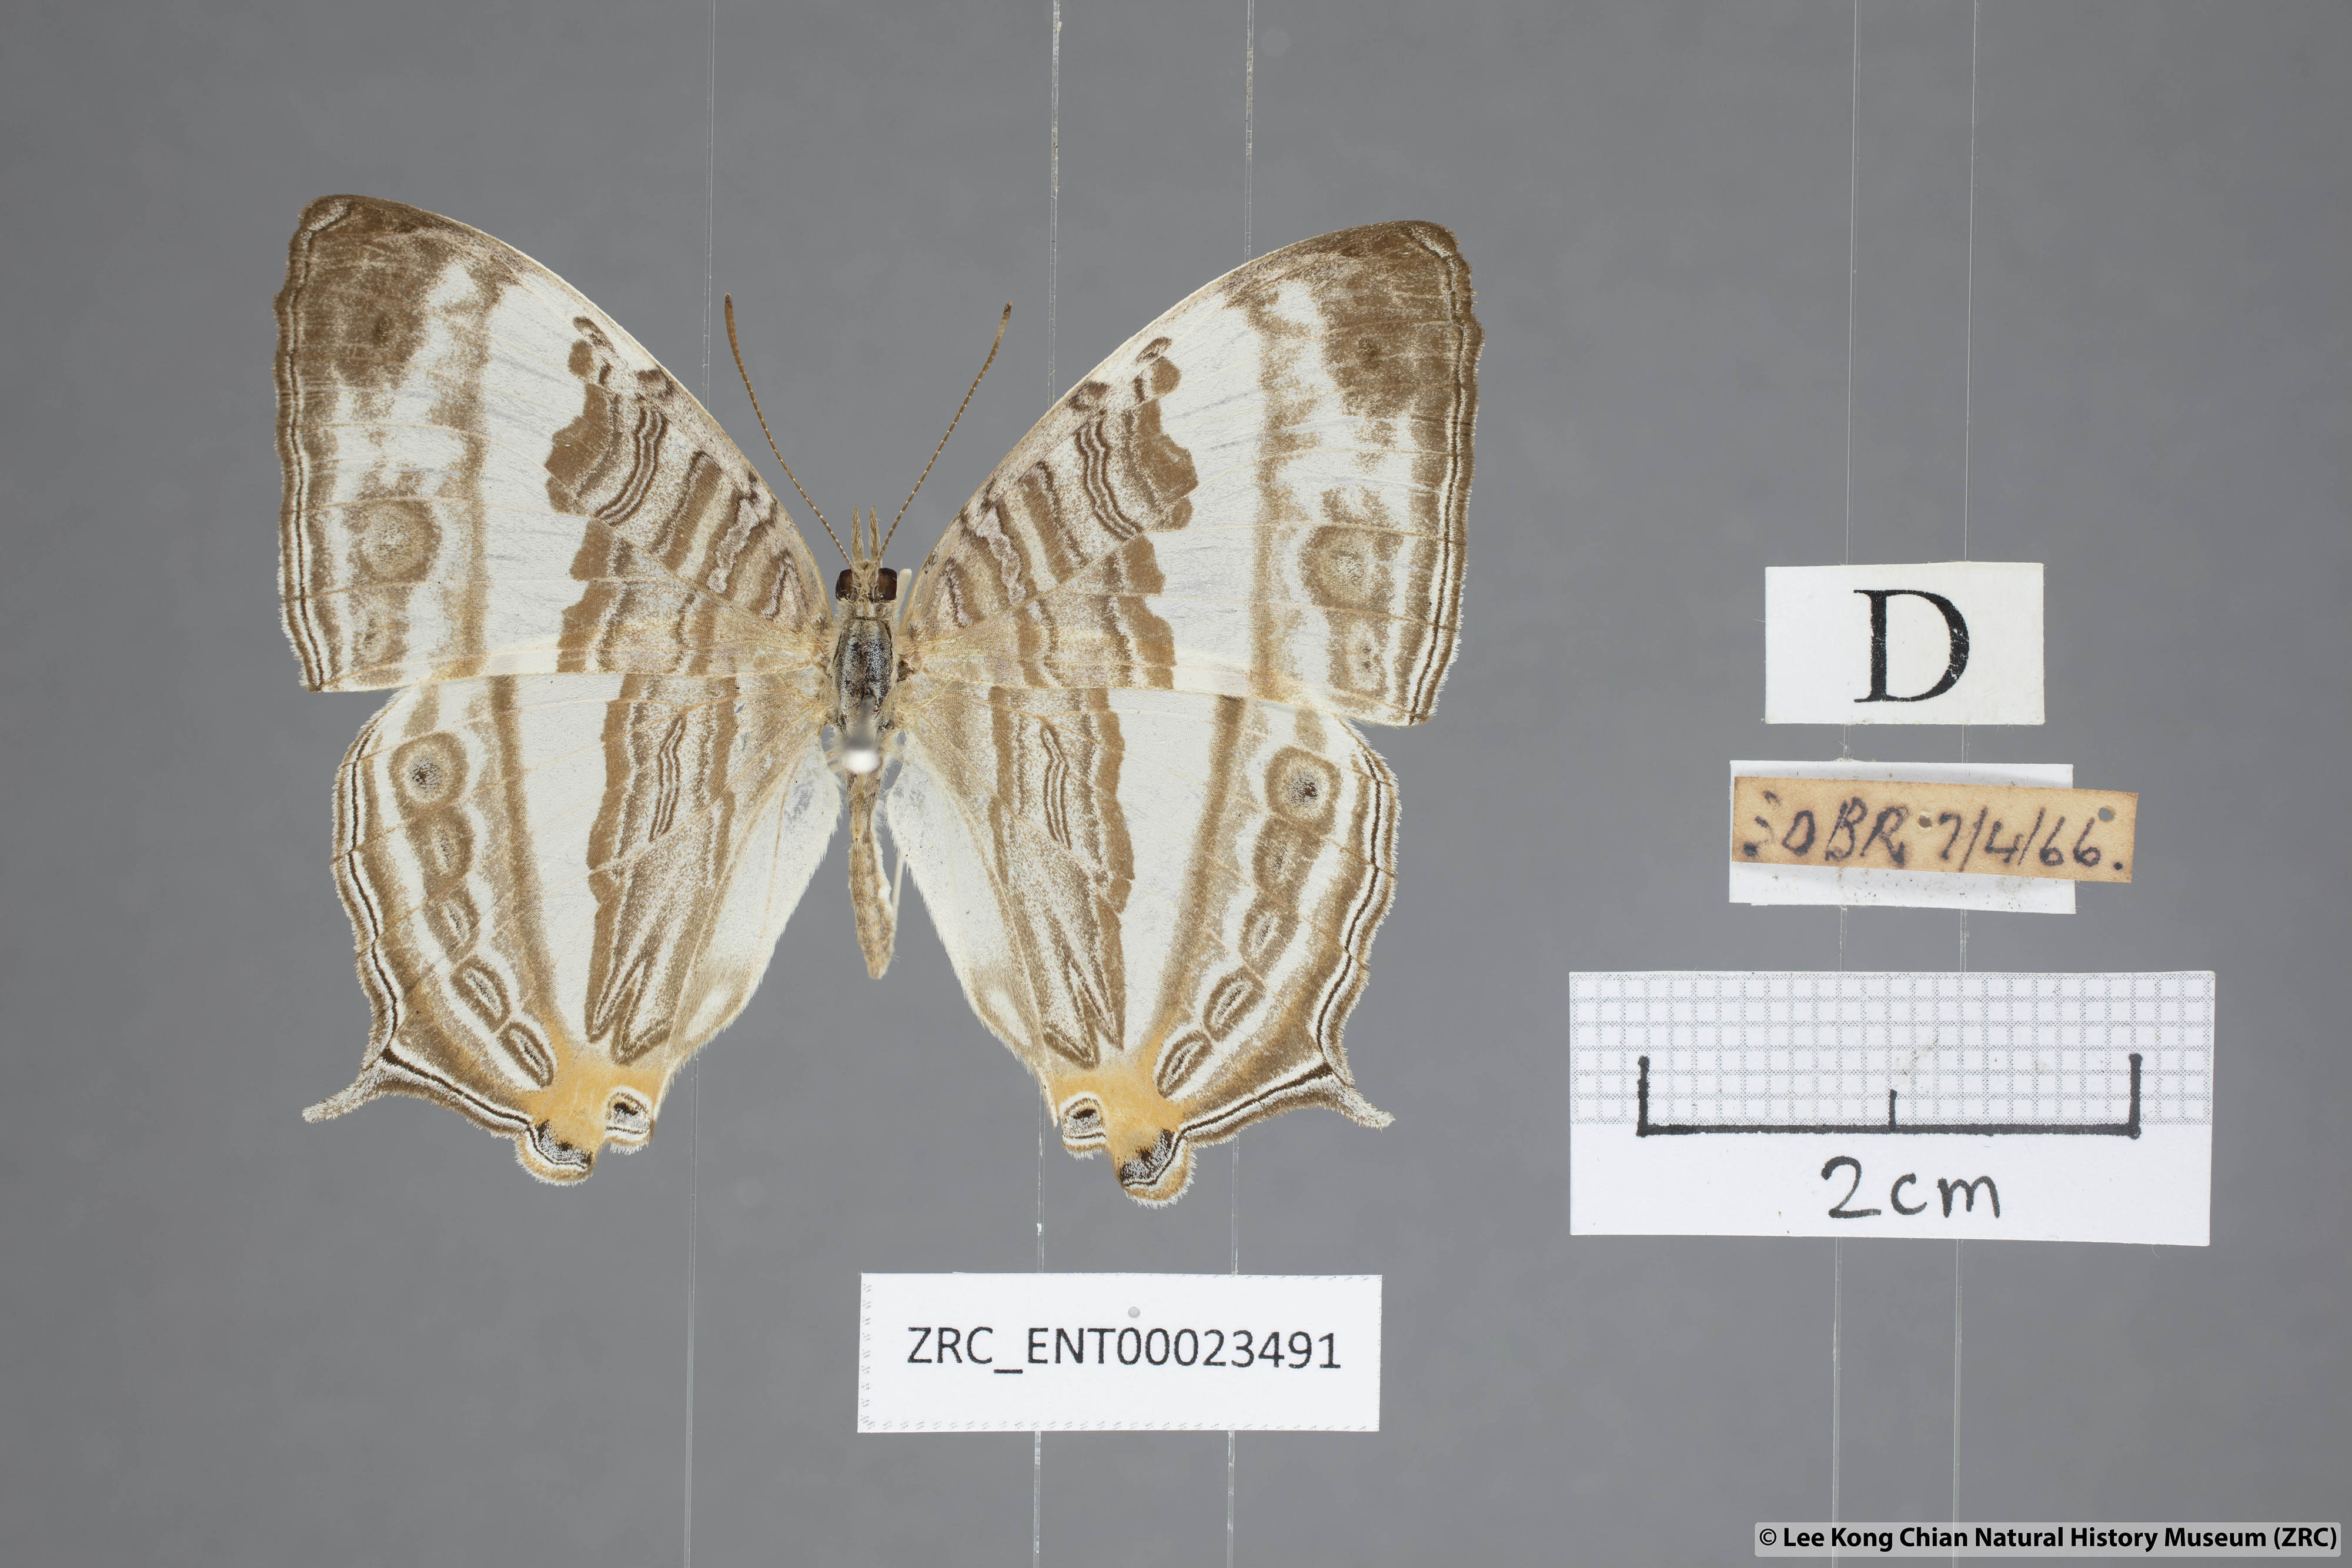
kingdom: Animalia
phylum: Arthropoda
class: Insecta
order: Lepidoptera
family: Nymphalidae
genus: Cyrestis
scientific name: Cyrestis cocles
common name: Marbled map
